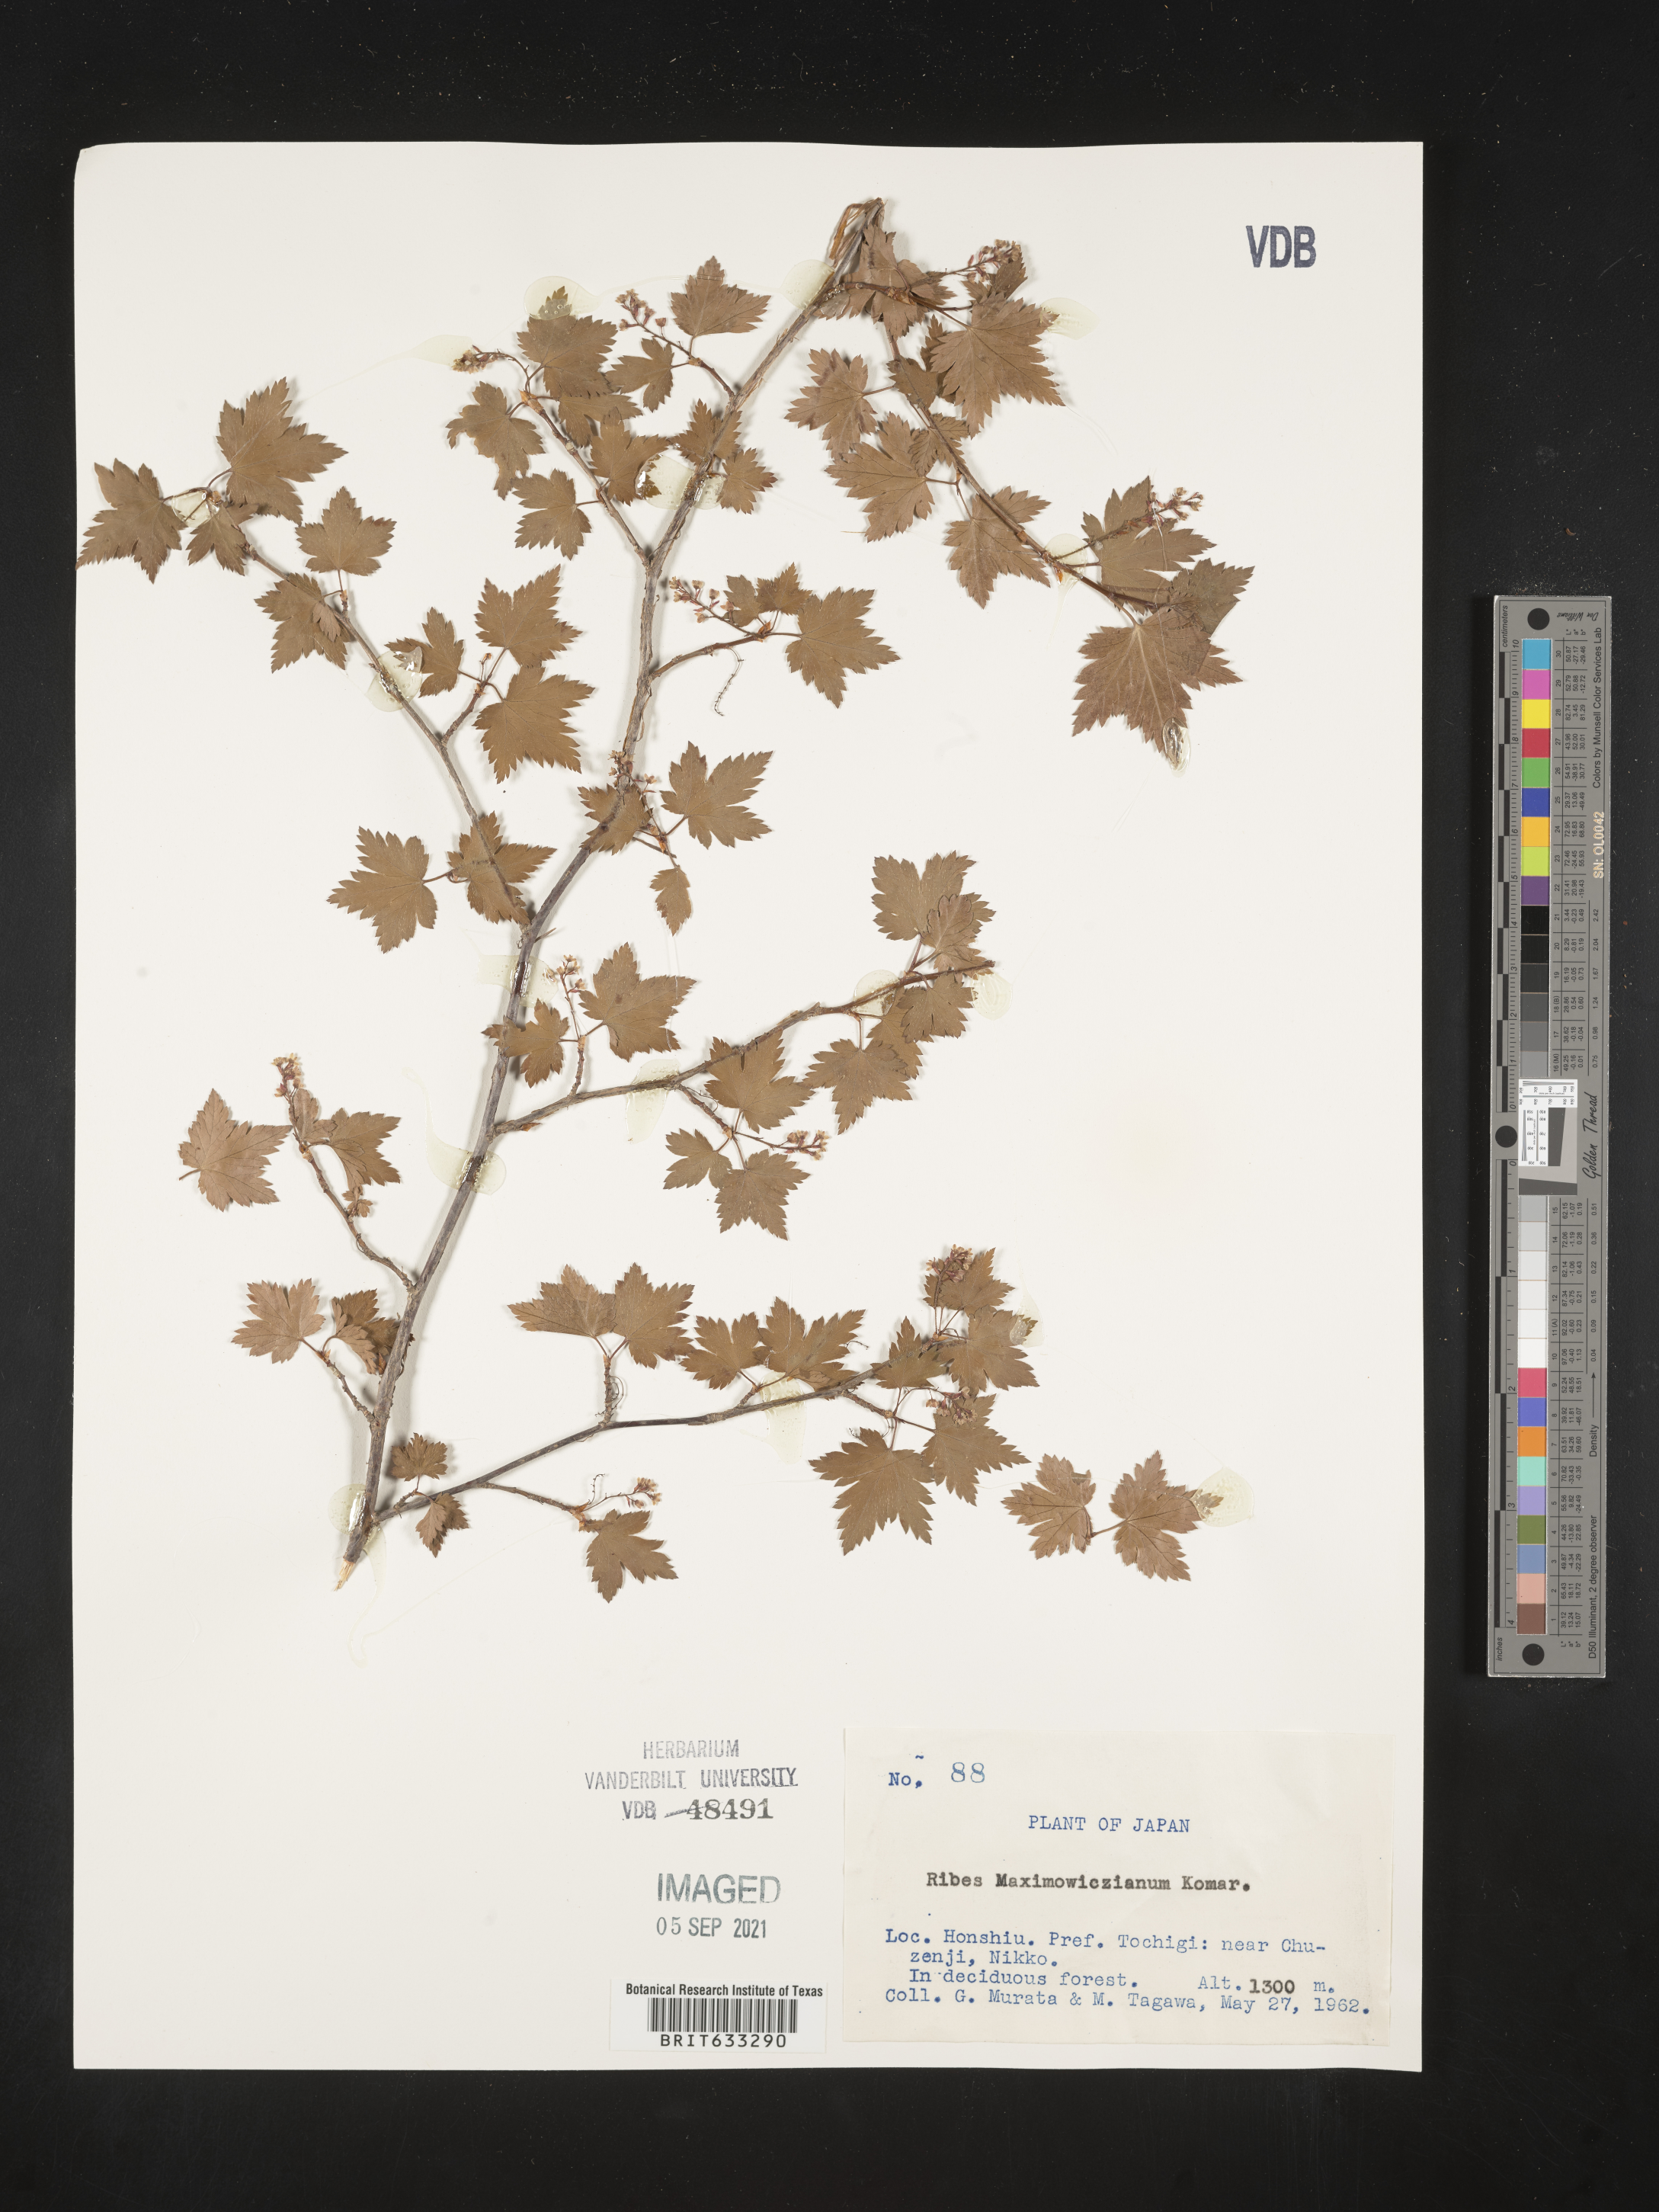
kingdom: Plantae
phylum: Tracheophyta
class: Magnoliopsida
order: Saxifragales
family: Grossulariaceae
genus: Ribes
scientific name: Ribes
